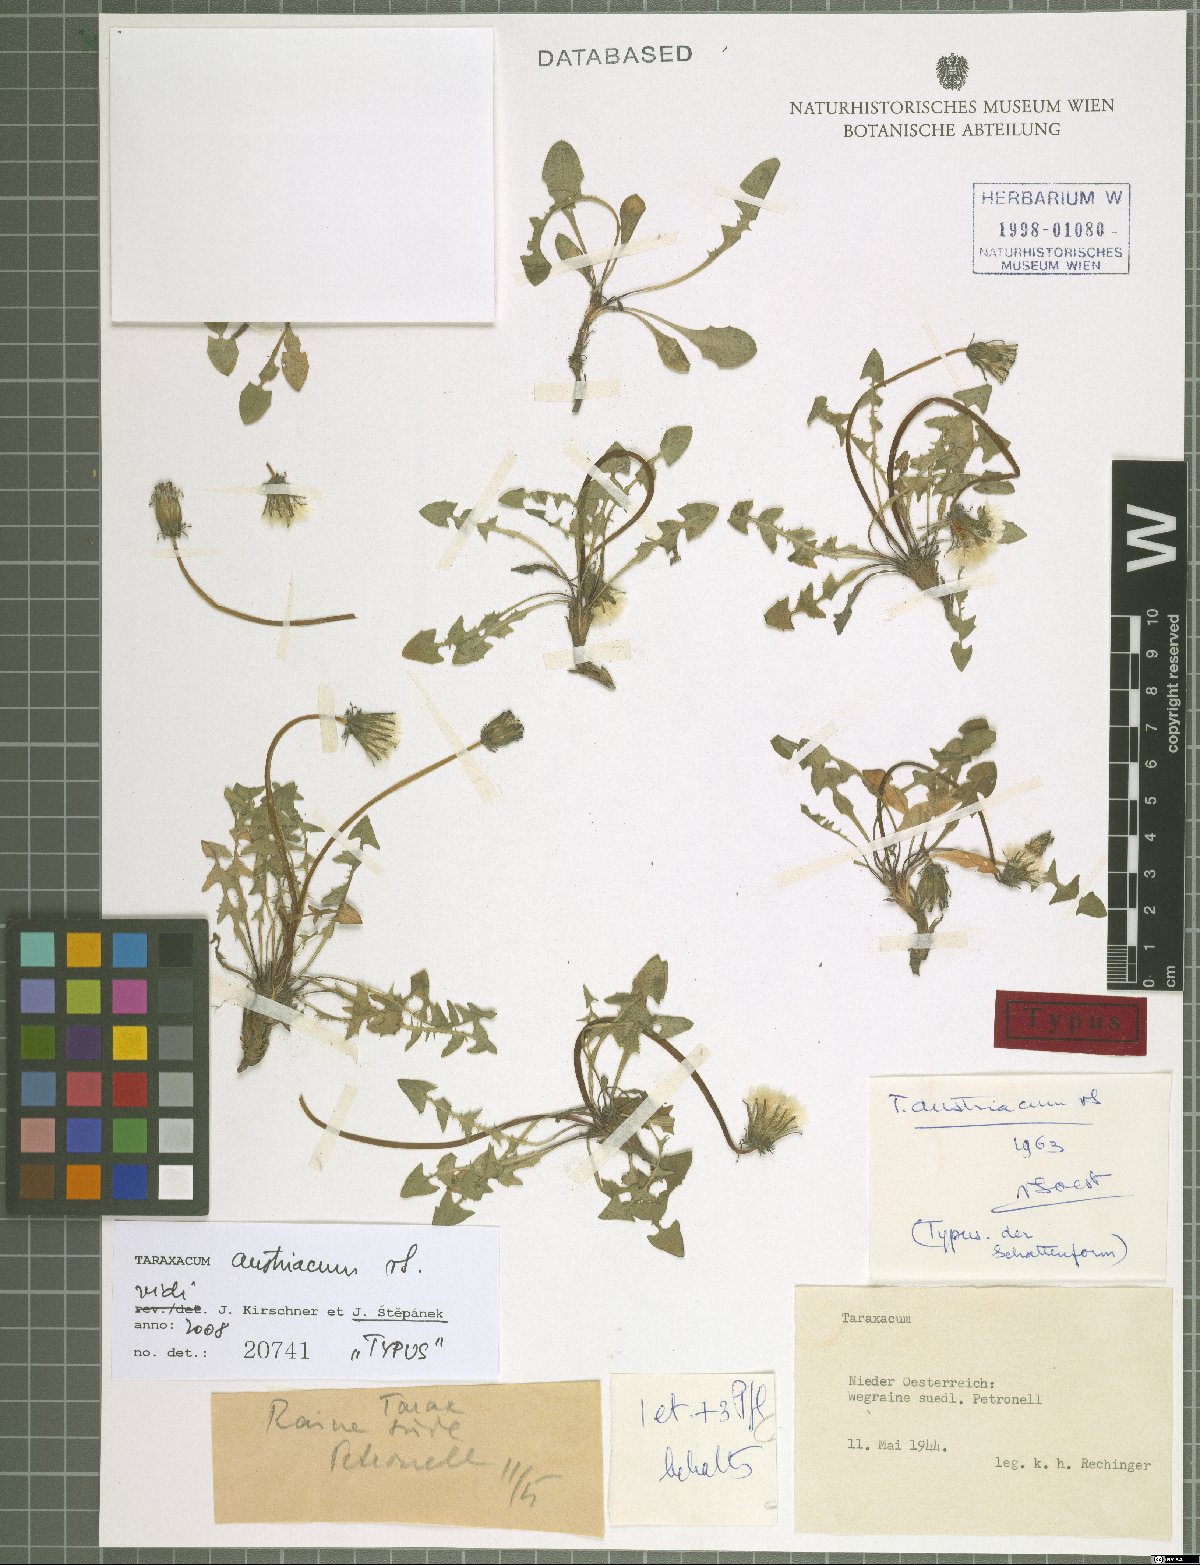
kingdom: Plantae
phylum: Tracheophyta
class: Magnoliopsida
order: Asterales
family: Asteraceae
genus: Taraxacum
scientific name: Taraxacum erythrospermum
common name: Rock dandelion
